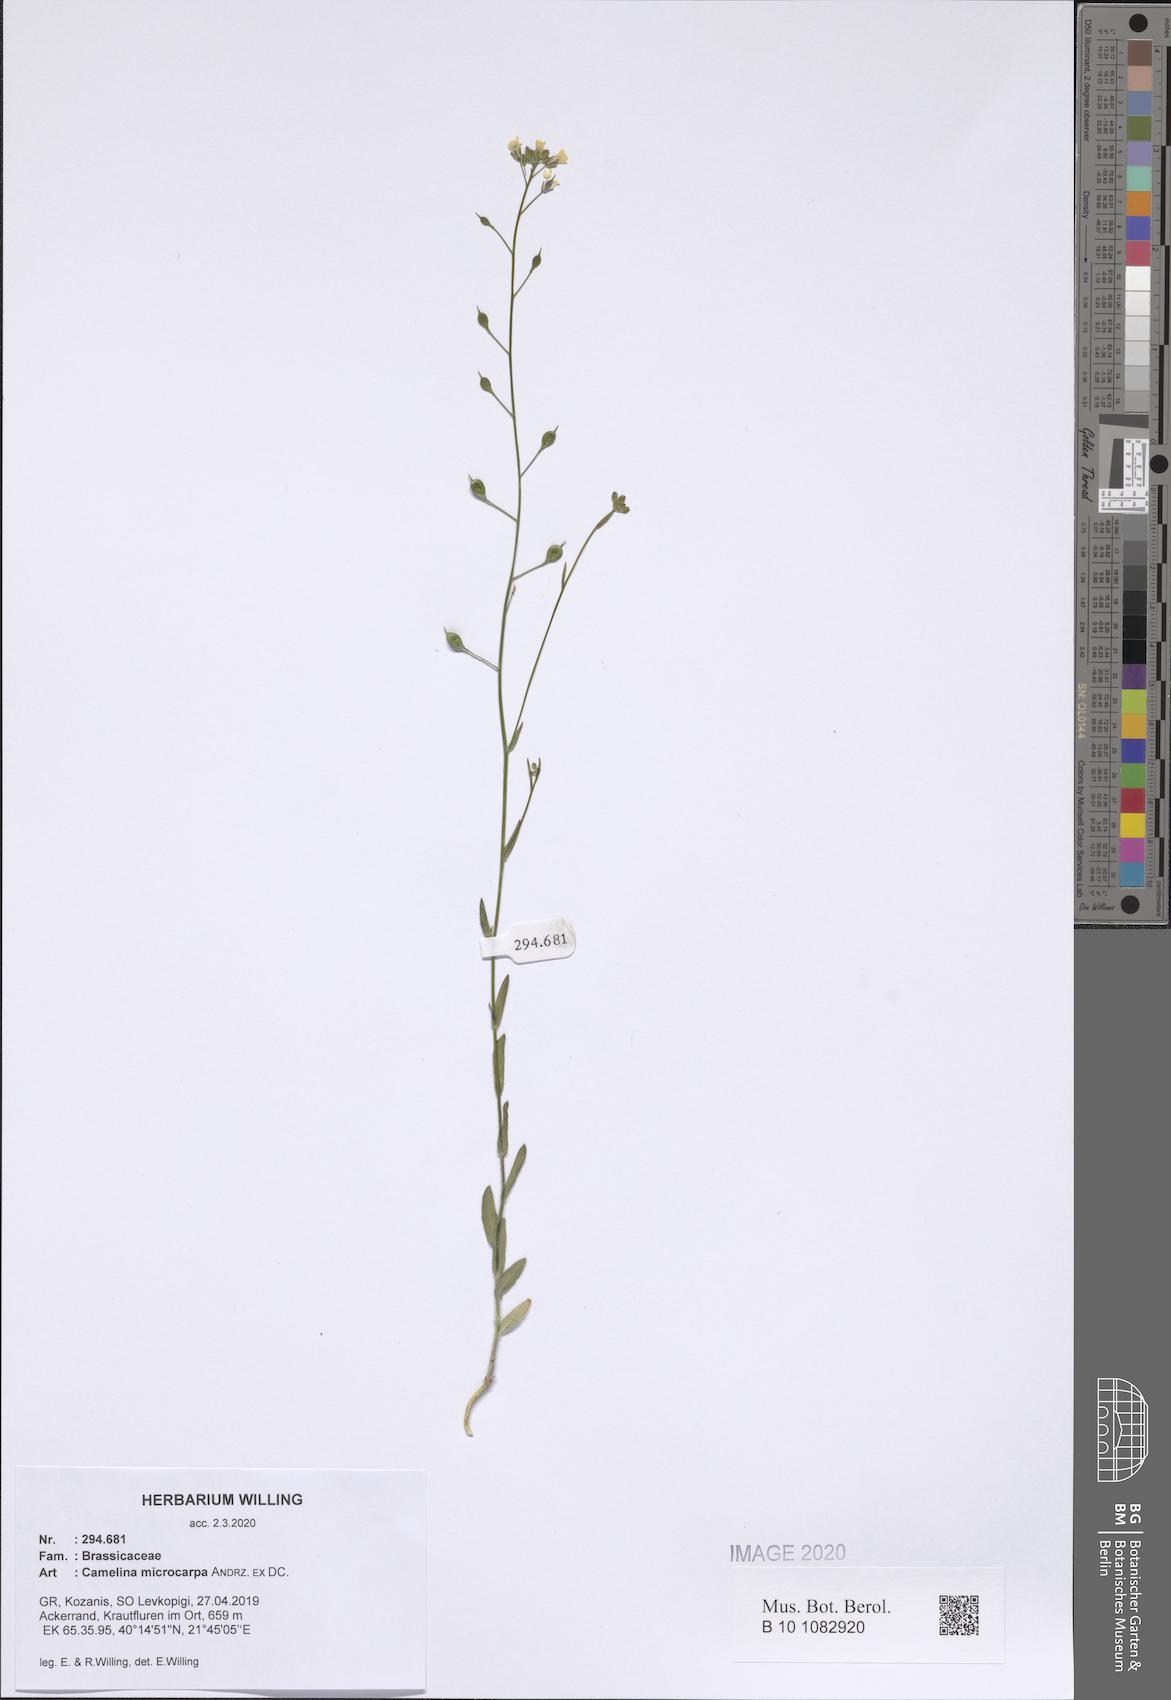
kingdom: Plantae
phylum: Tracheophyta
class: Magnoliopsida
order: Brassicales
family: Brassicaceae
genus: Camelina
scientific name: Camelina microcarpa
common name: Lesser gold-of-pleasure
